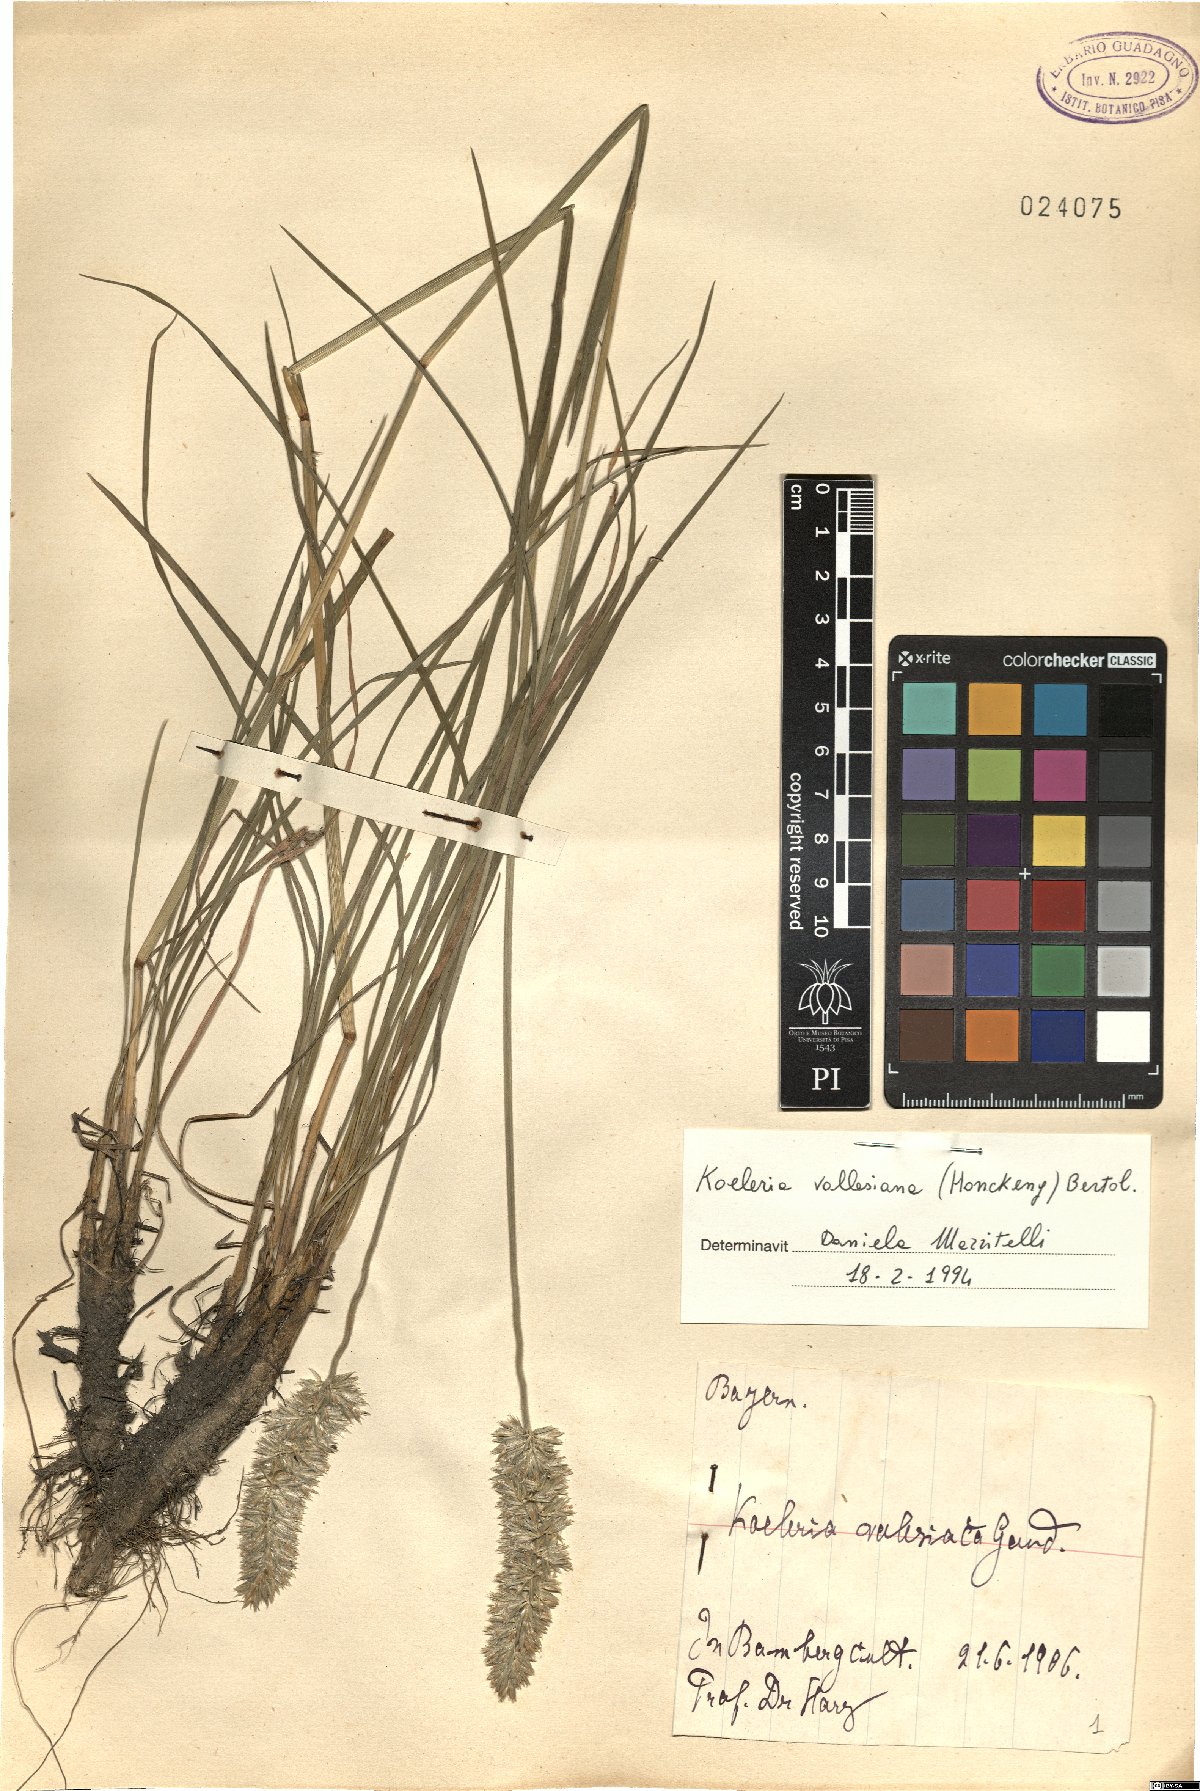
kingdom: Plantae
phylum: Tracheophyta
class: Liliopsida
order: Poales
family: Poaceae
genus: Koeleria
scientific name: Koeleria vallesiana
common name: Somerset hair-grass
